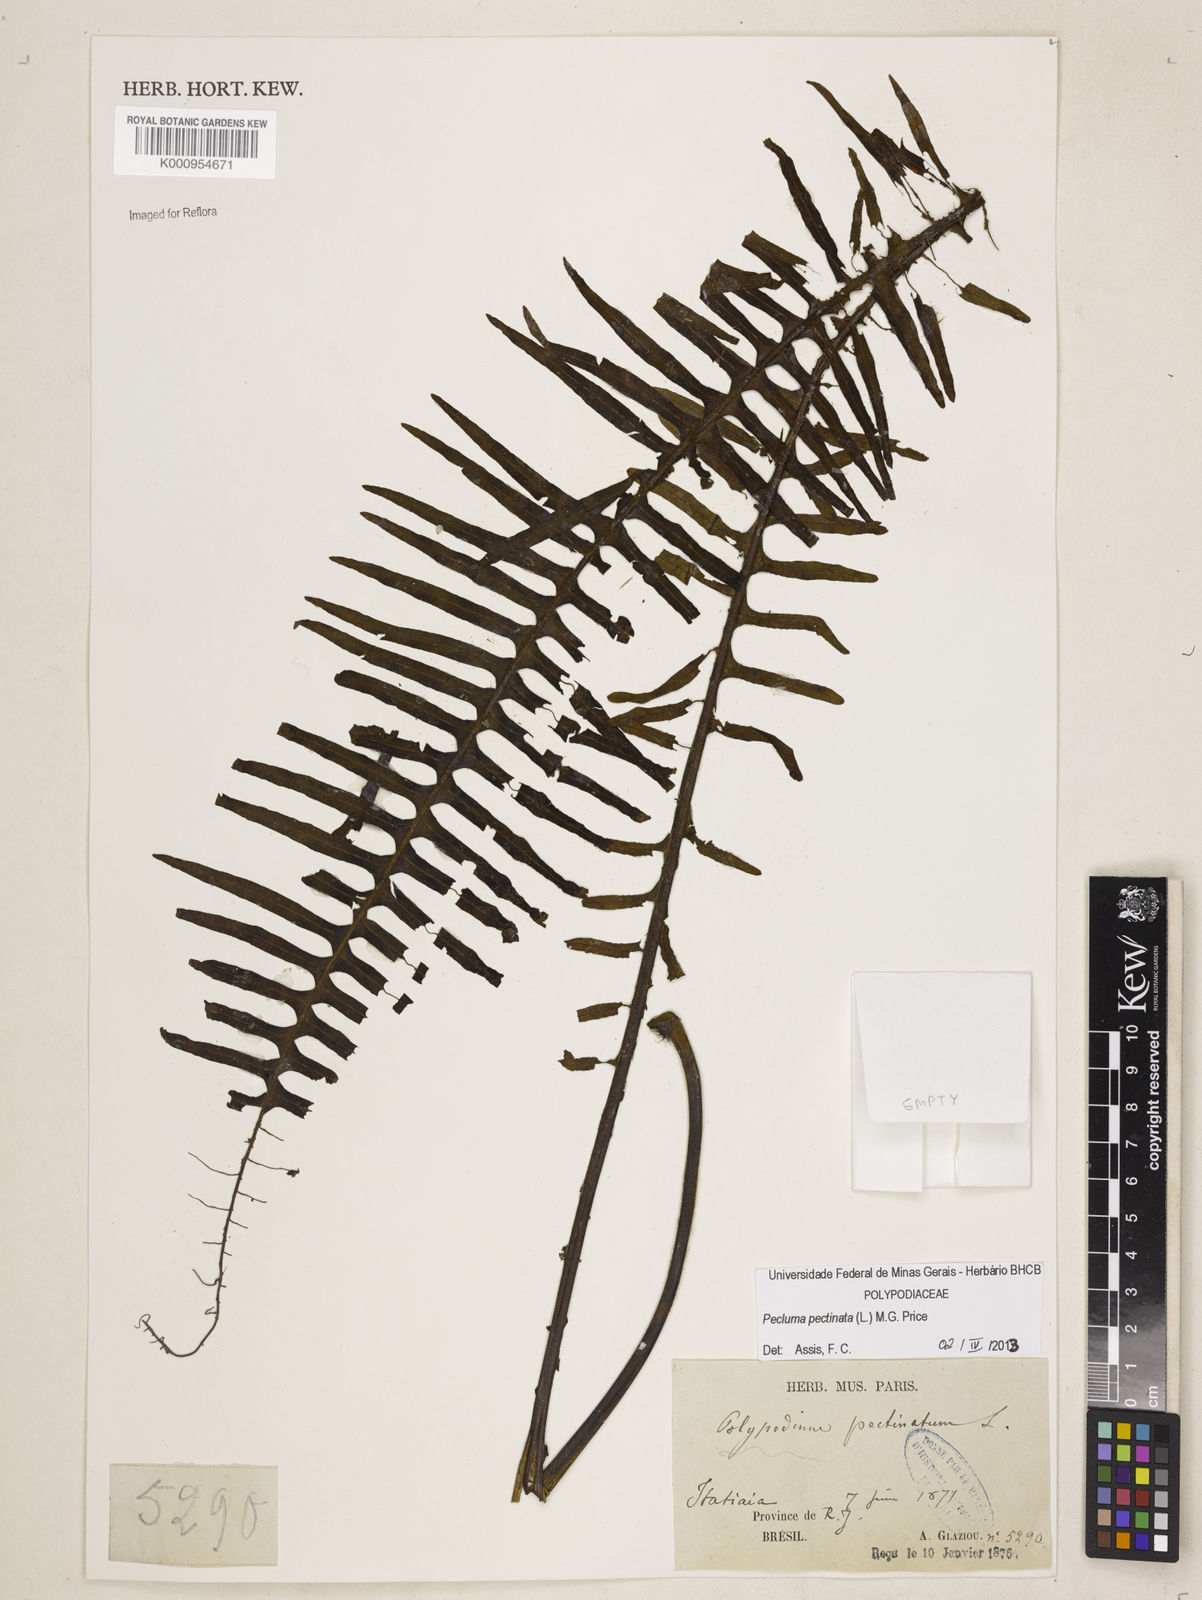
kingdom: Plantae
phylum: Tracheophyta
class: Polypodiopsida
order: Polypodiales
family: Polypodiaceae
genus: Pecluma
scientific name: Pecluma pectinata
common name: Msasa fern
